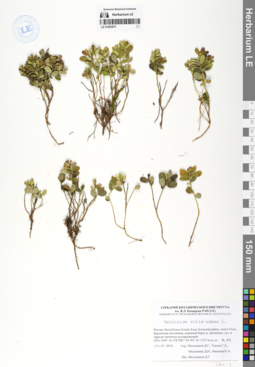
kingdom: Plantae
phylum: Tracheophyta
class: Magnoliopsida
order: Ericales
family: Ericaceae
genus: Vaccinium
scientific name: Vaccinium vitis-idaea
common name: Cowberry
